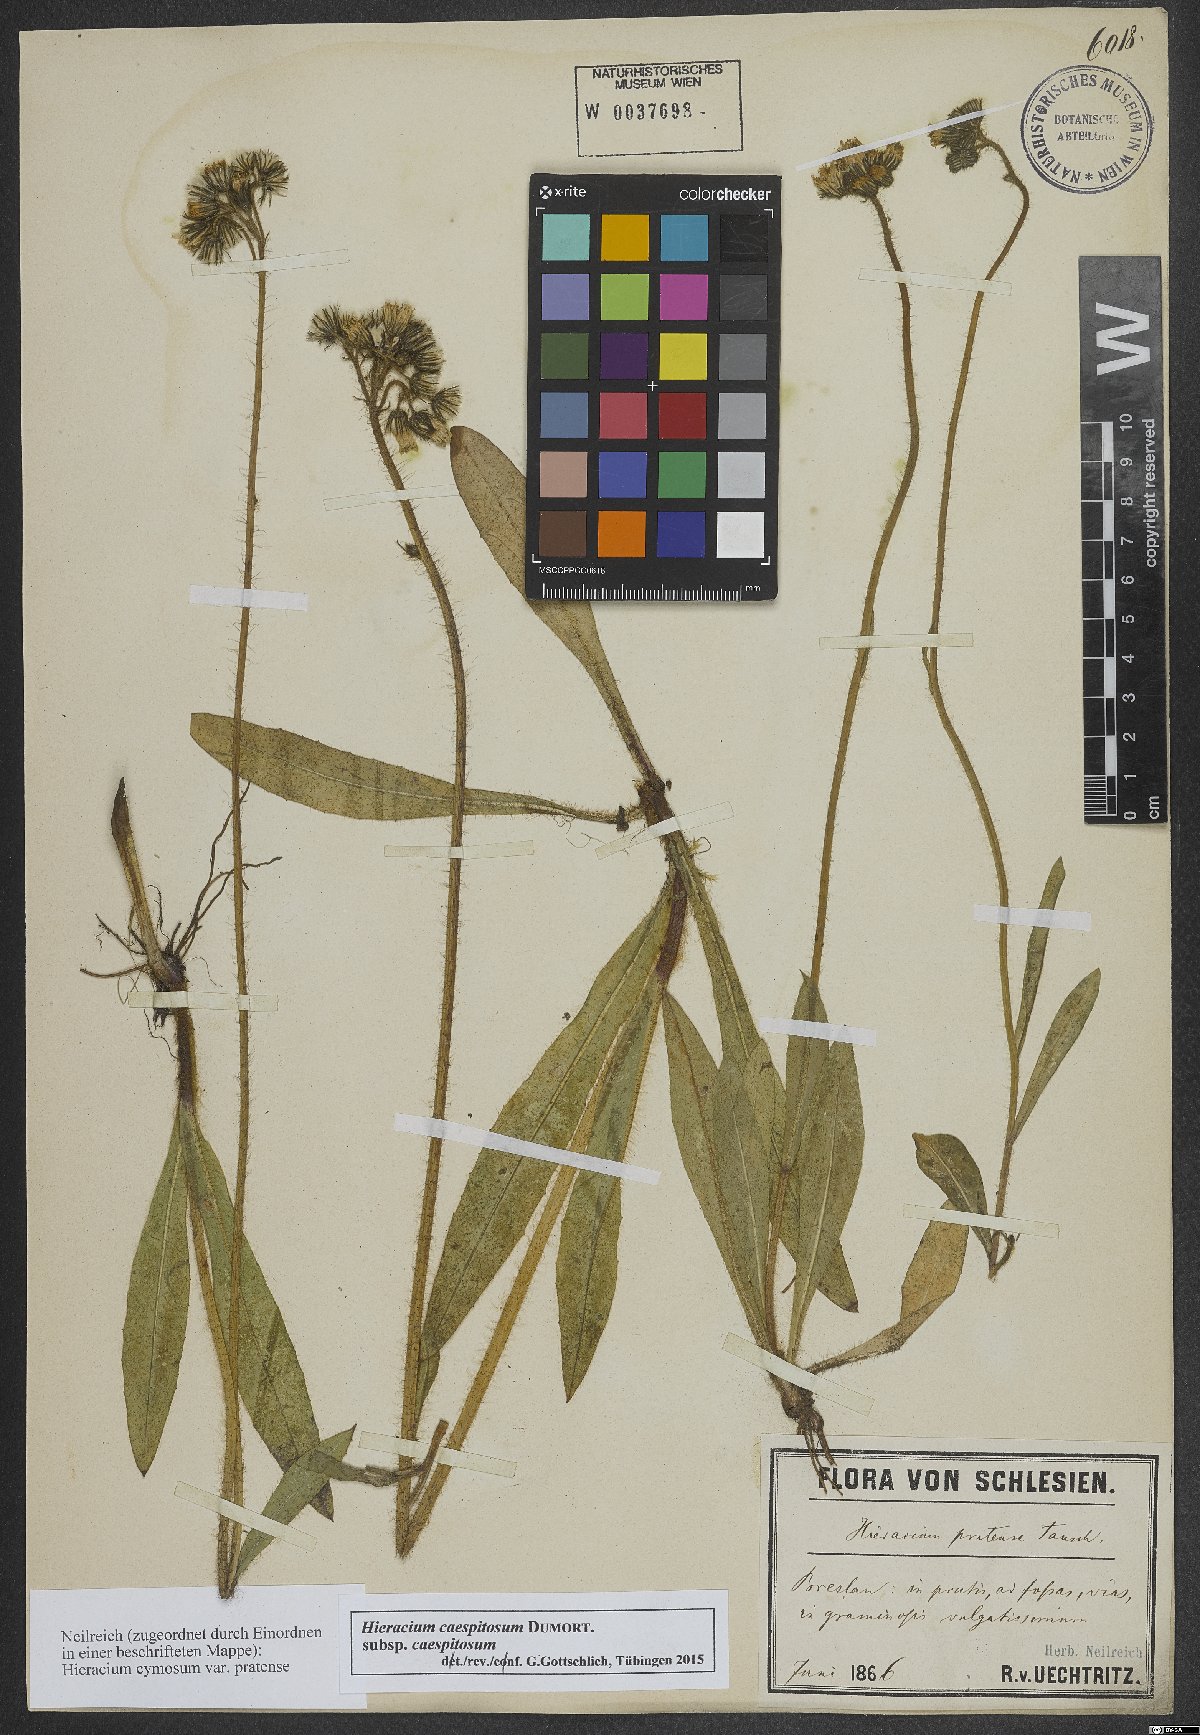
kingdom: Plantae
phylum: Tracheophyta
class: Magnoliopsida
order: Asterales
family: Asteraceae
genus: Pilosella
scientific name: Pilosella caespitosa
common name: Yellow fox-and-cubs
